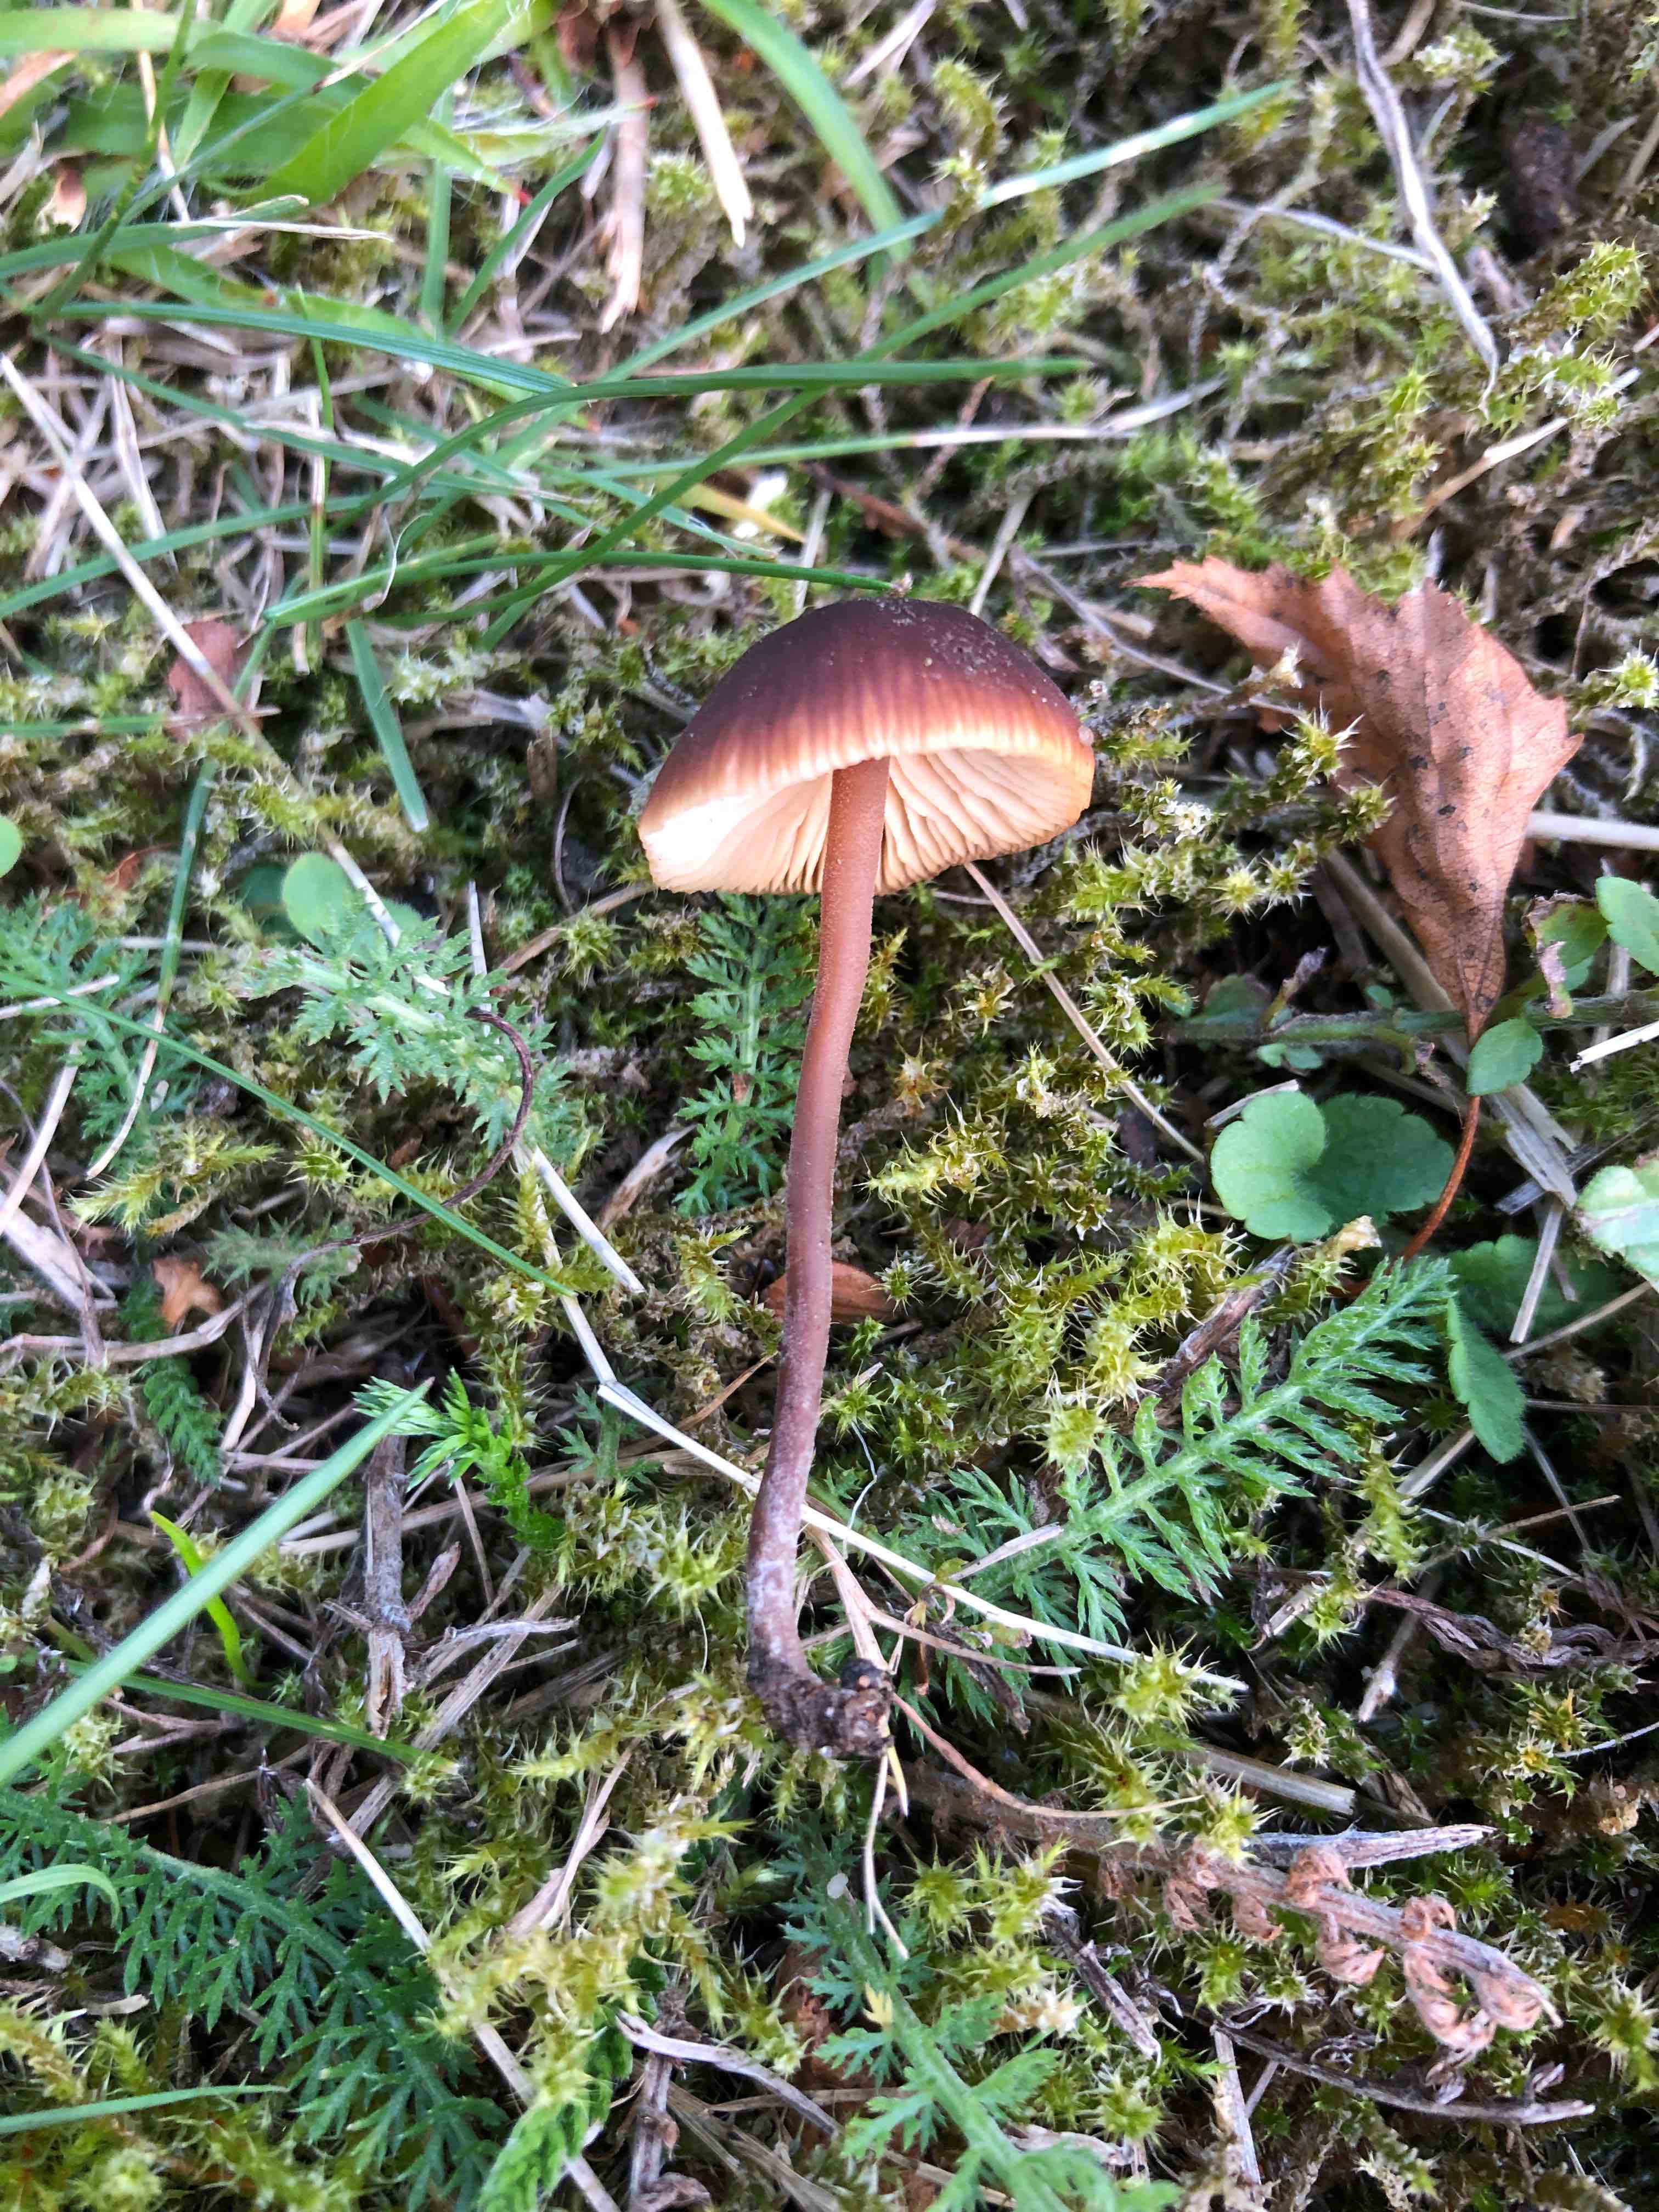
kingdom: Fungi
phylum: Basidiomycota
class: Agaricomycetes
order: Agaricales
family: Macrocystidiaceae
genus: Macrocystidia
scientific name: Macrocystidia cucumis
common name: agurkehat
